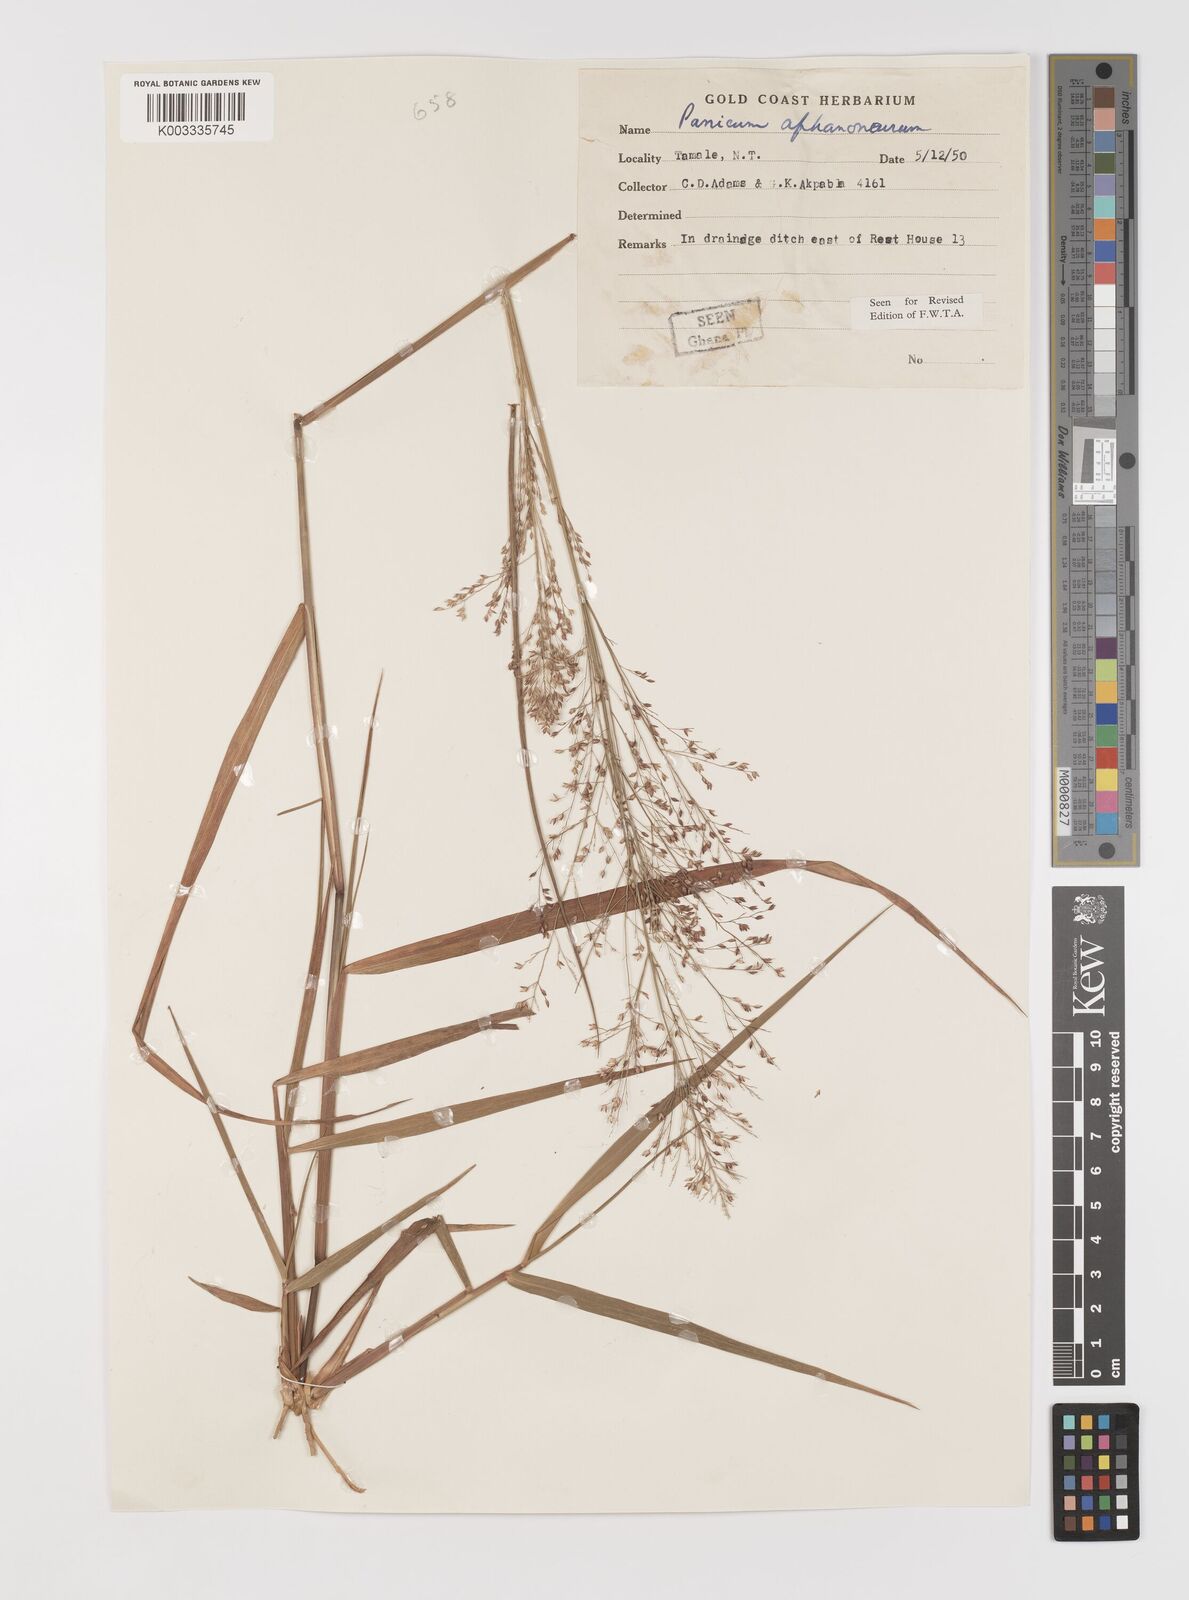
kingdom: Plantae
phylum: Tracheophyta
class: Liliopsida
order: Poales
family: Poaceae
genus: Panicum
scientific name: Panicum fluviicola
